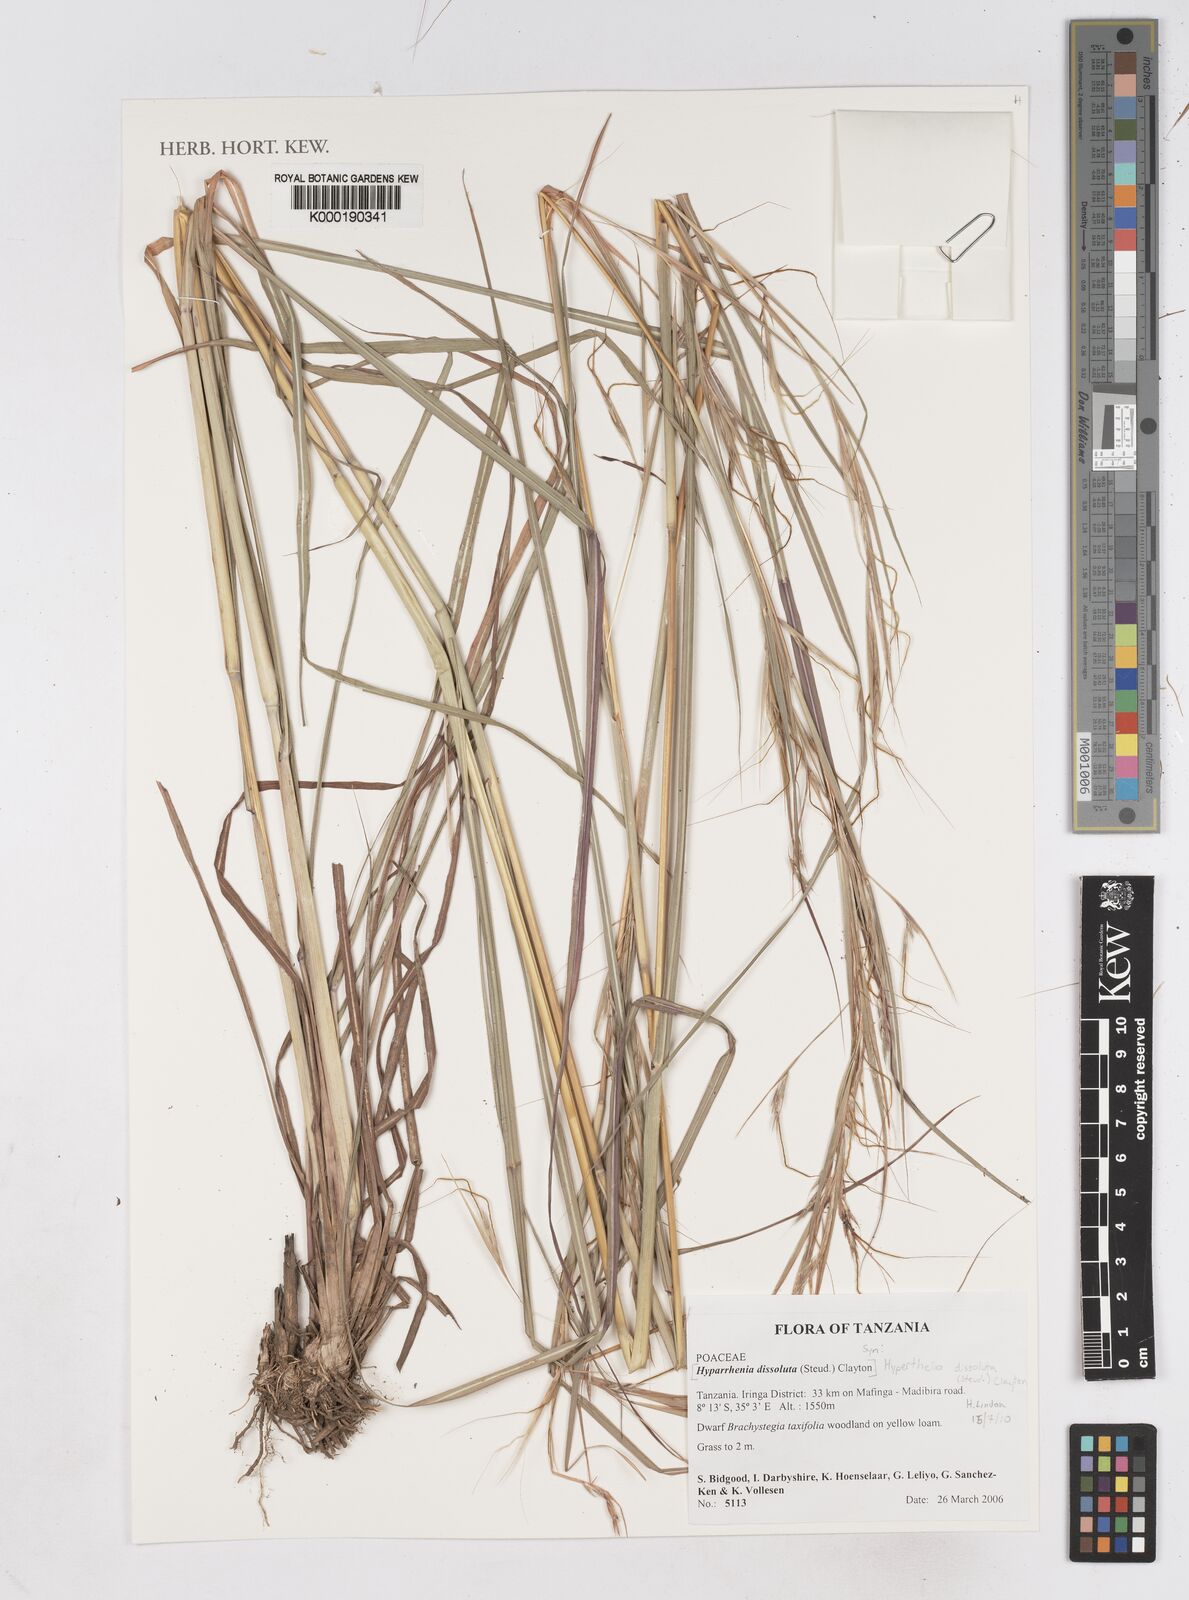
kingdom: Plantae
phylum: Tracheophyta
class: Liliopsida
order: Poales
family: Poaceae
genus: Hyperthelia
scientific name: Hyperthelia dissoluta
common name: Yellow thatching grass
